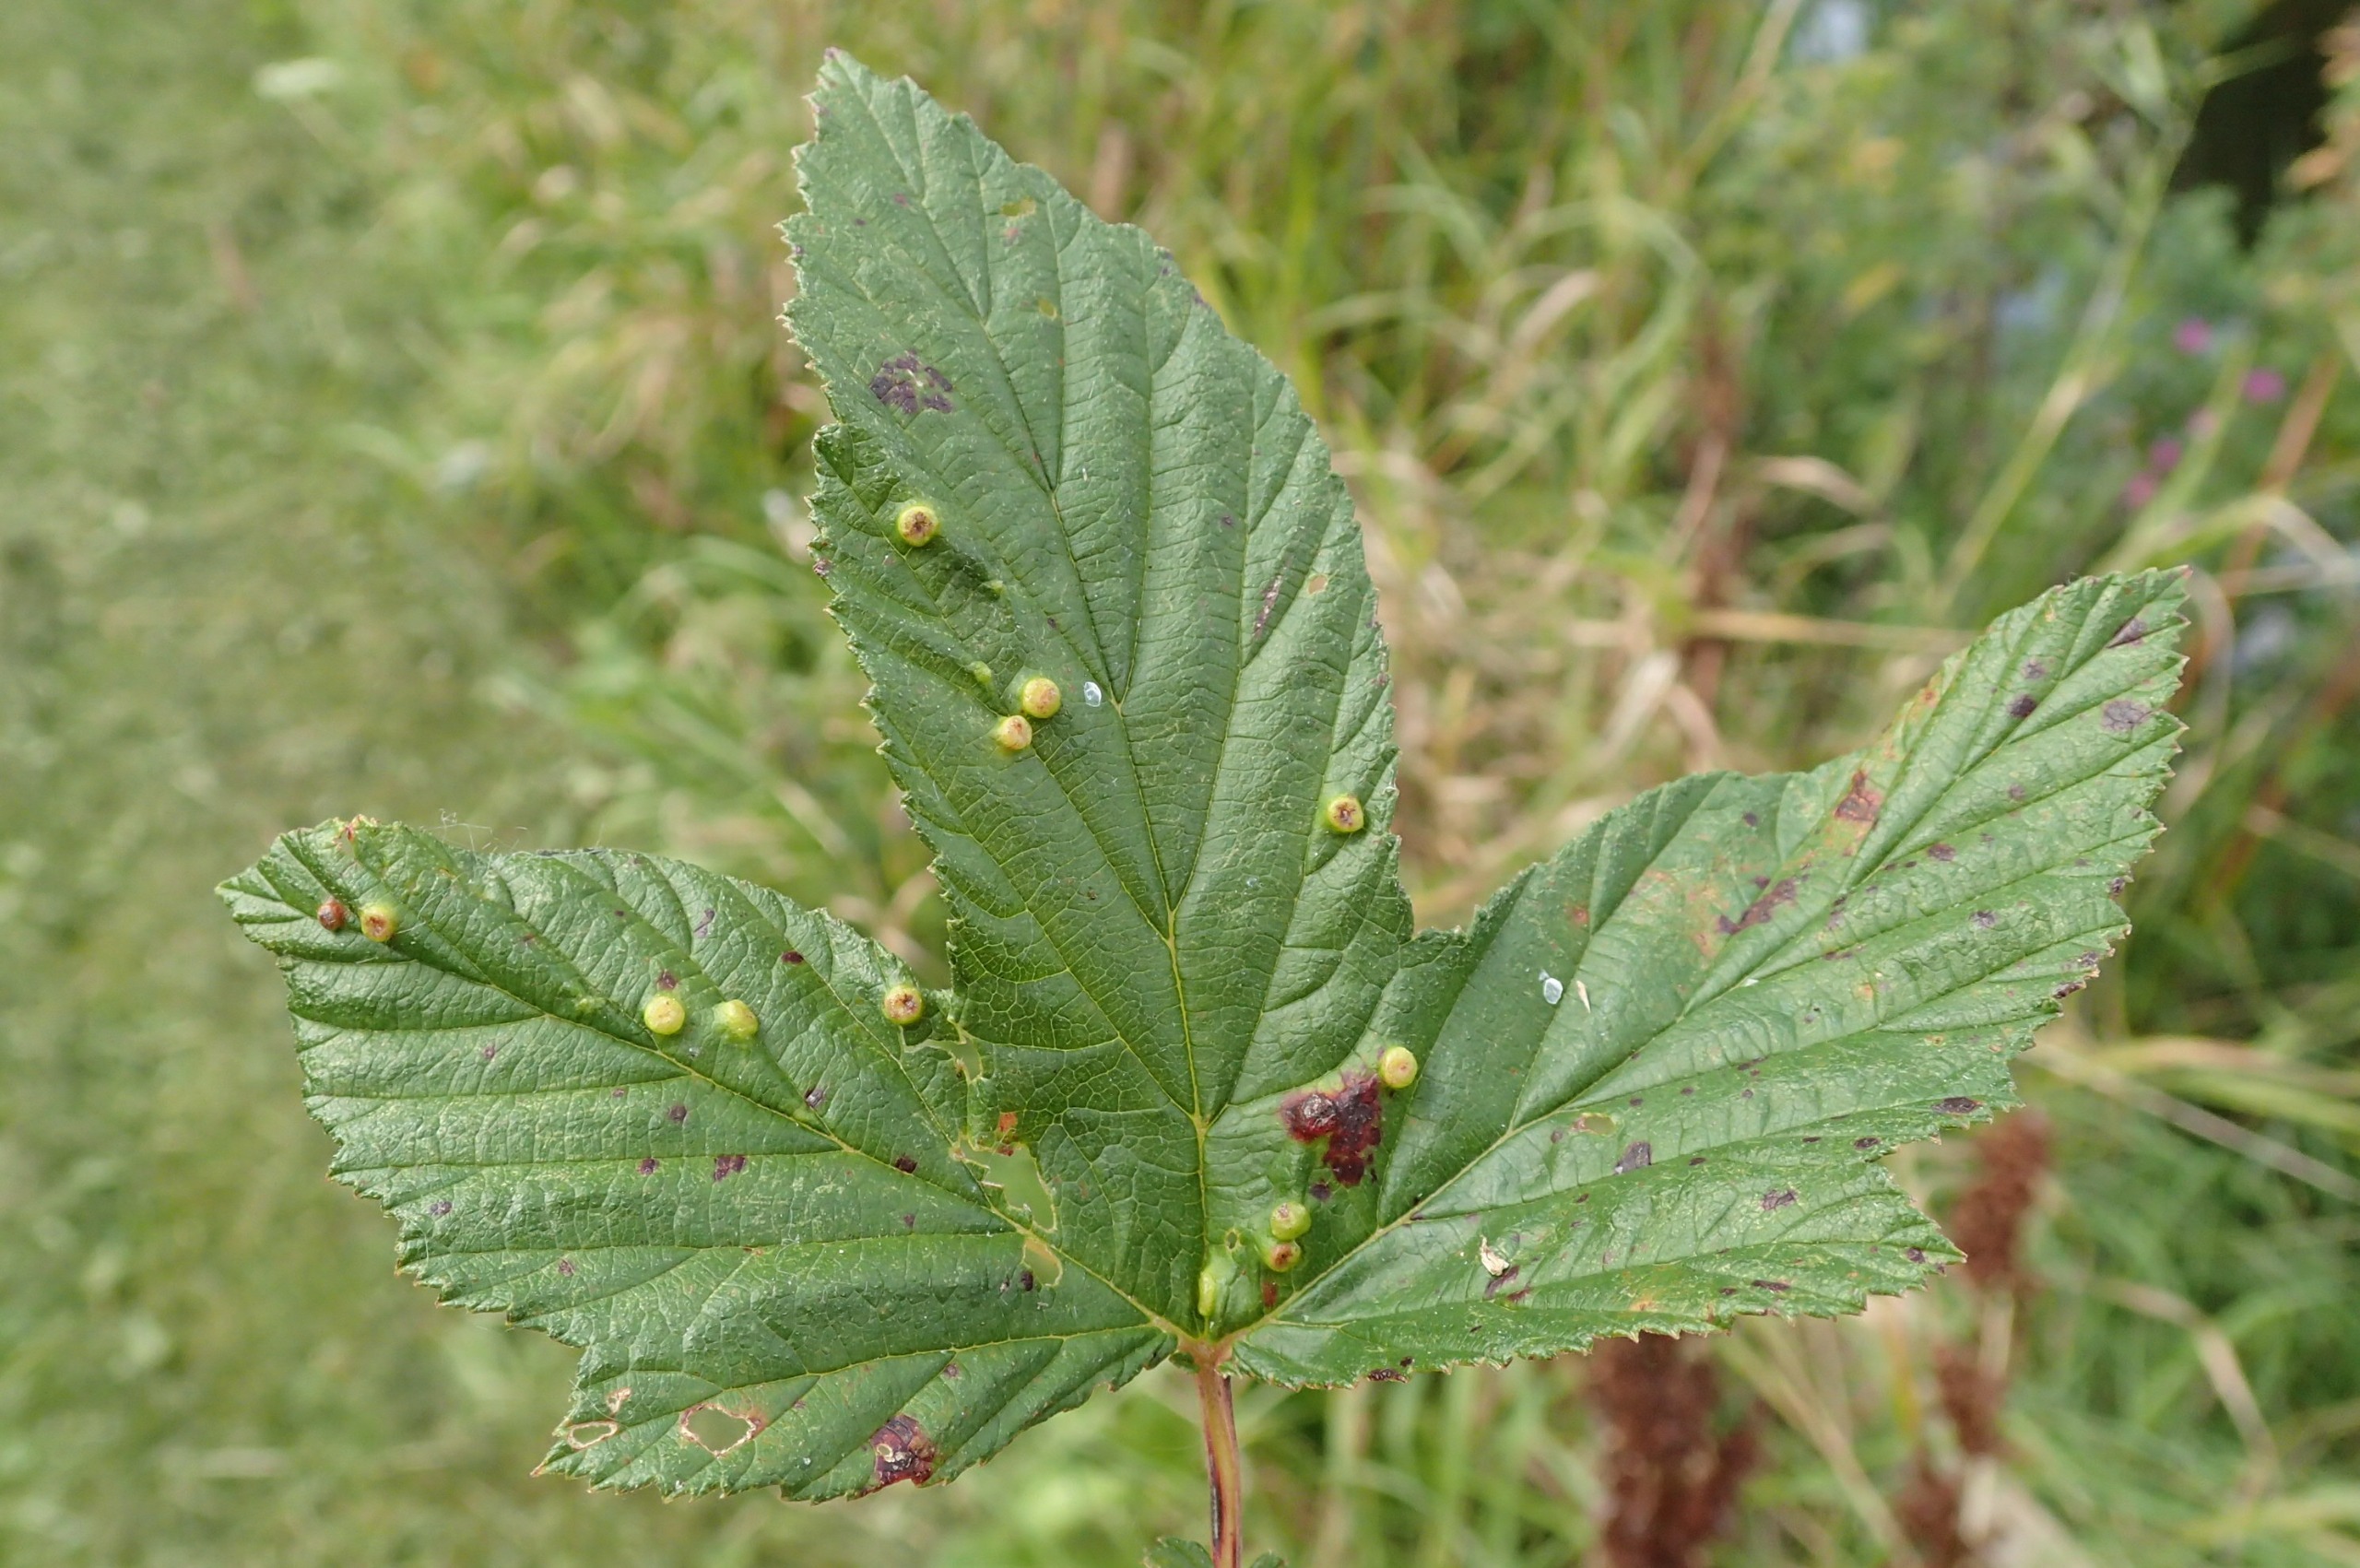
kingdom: Animalia
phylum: Arthropoda
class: Insecta
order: Diptera
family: Cecidomyiidae
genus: Dasineura
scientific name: Dasineura ulmaria
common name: Mjødurtgalmyg
